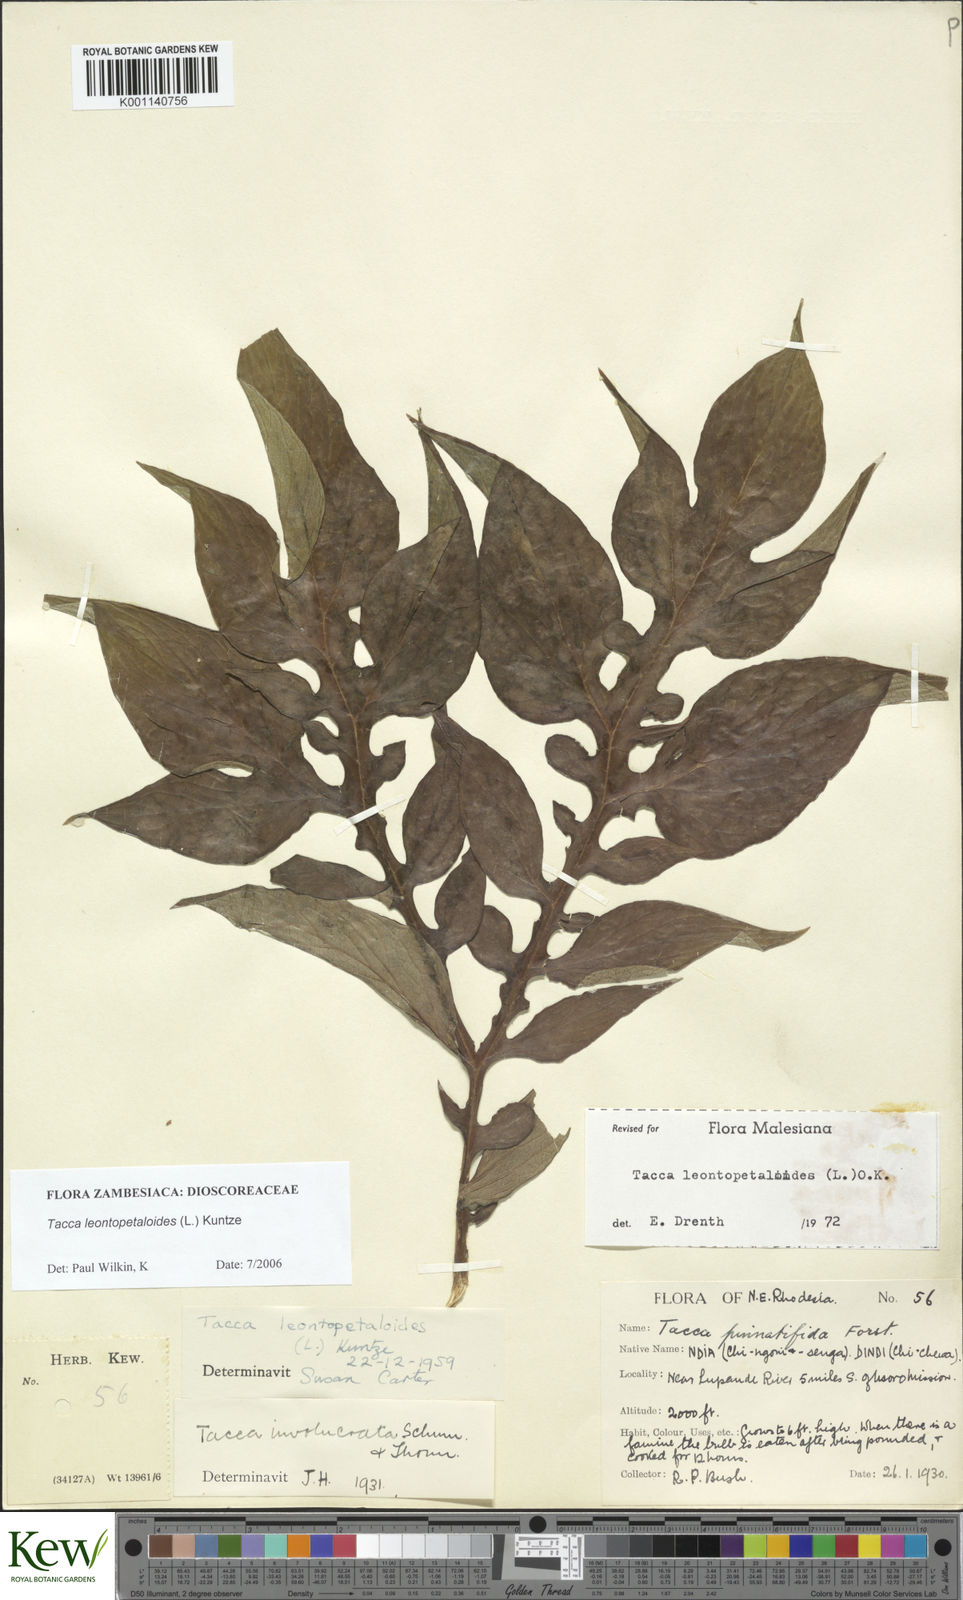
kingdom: Plantae
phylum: Tracheophyta
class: Liliopsida
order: Dioscoreales
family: Dioscoreaceae
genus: Tacca
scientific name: Tacca leontopetaloides
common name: Arrowroot
